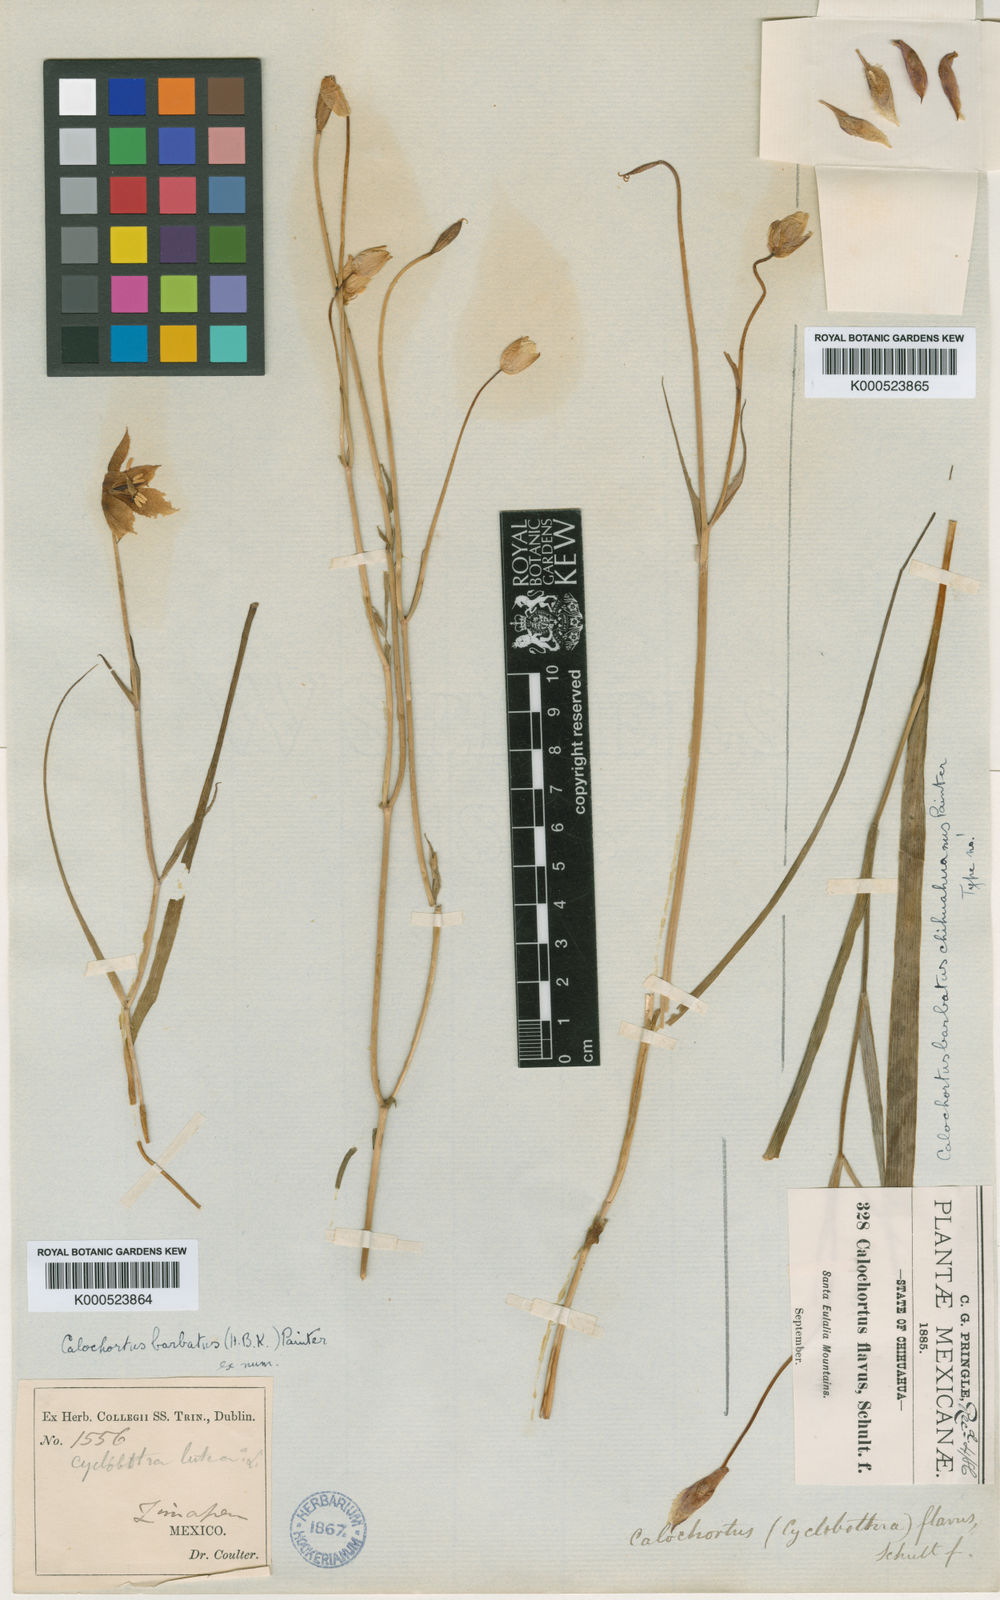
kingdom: Plantae
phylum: Tracheophyta
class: Liliopsida
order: Liliales
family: Liliaceae
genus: Calochortus
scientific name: Calochortus barbatus
